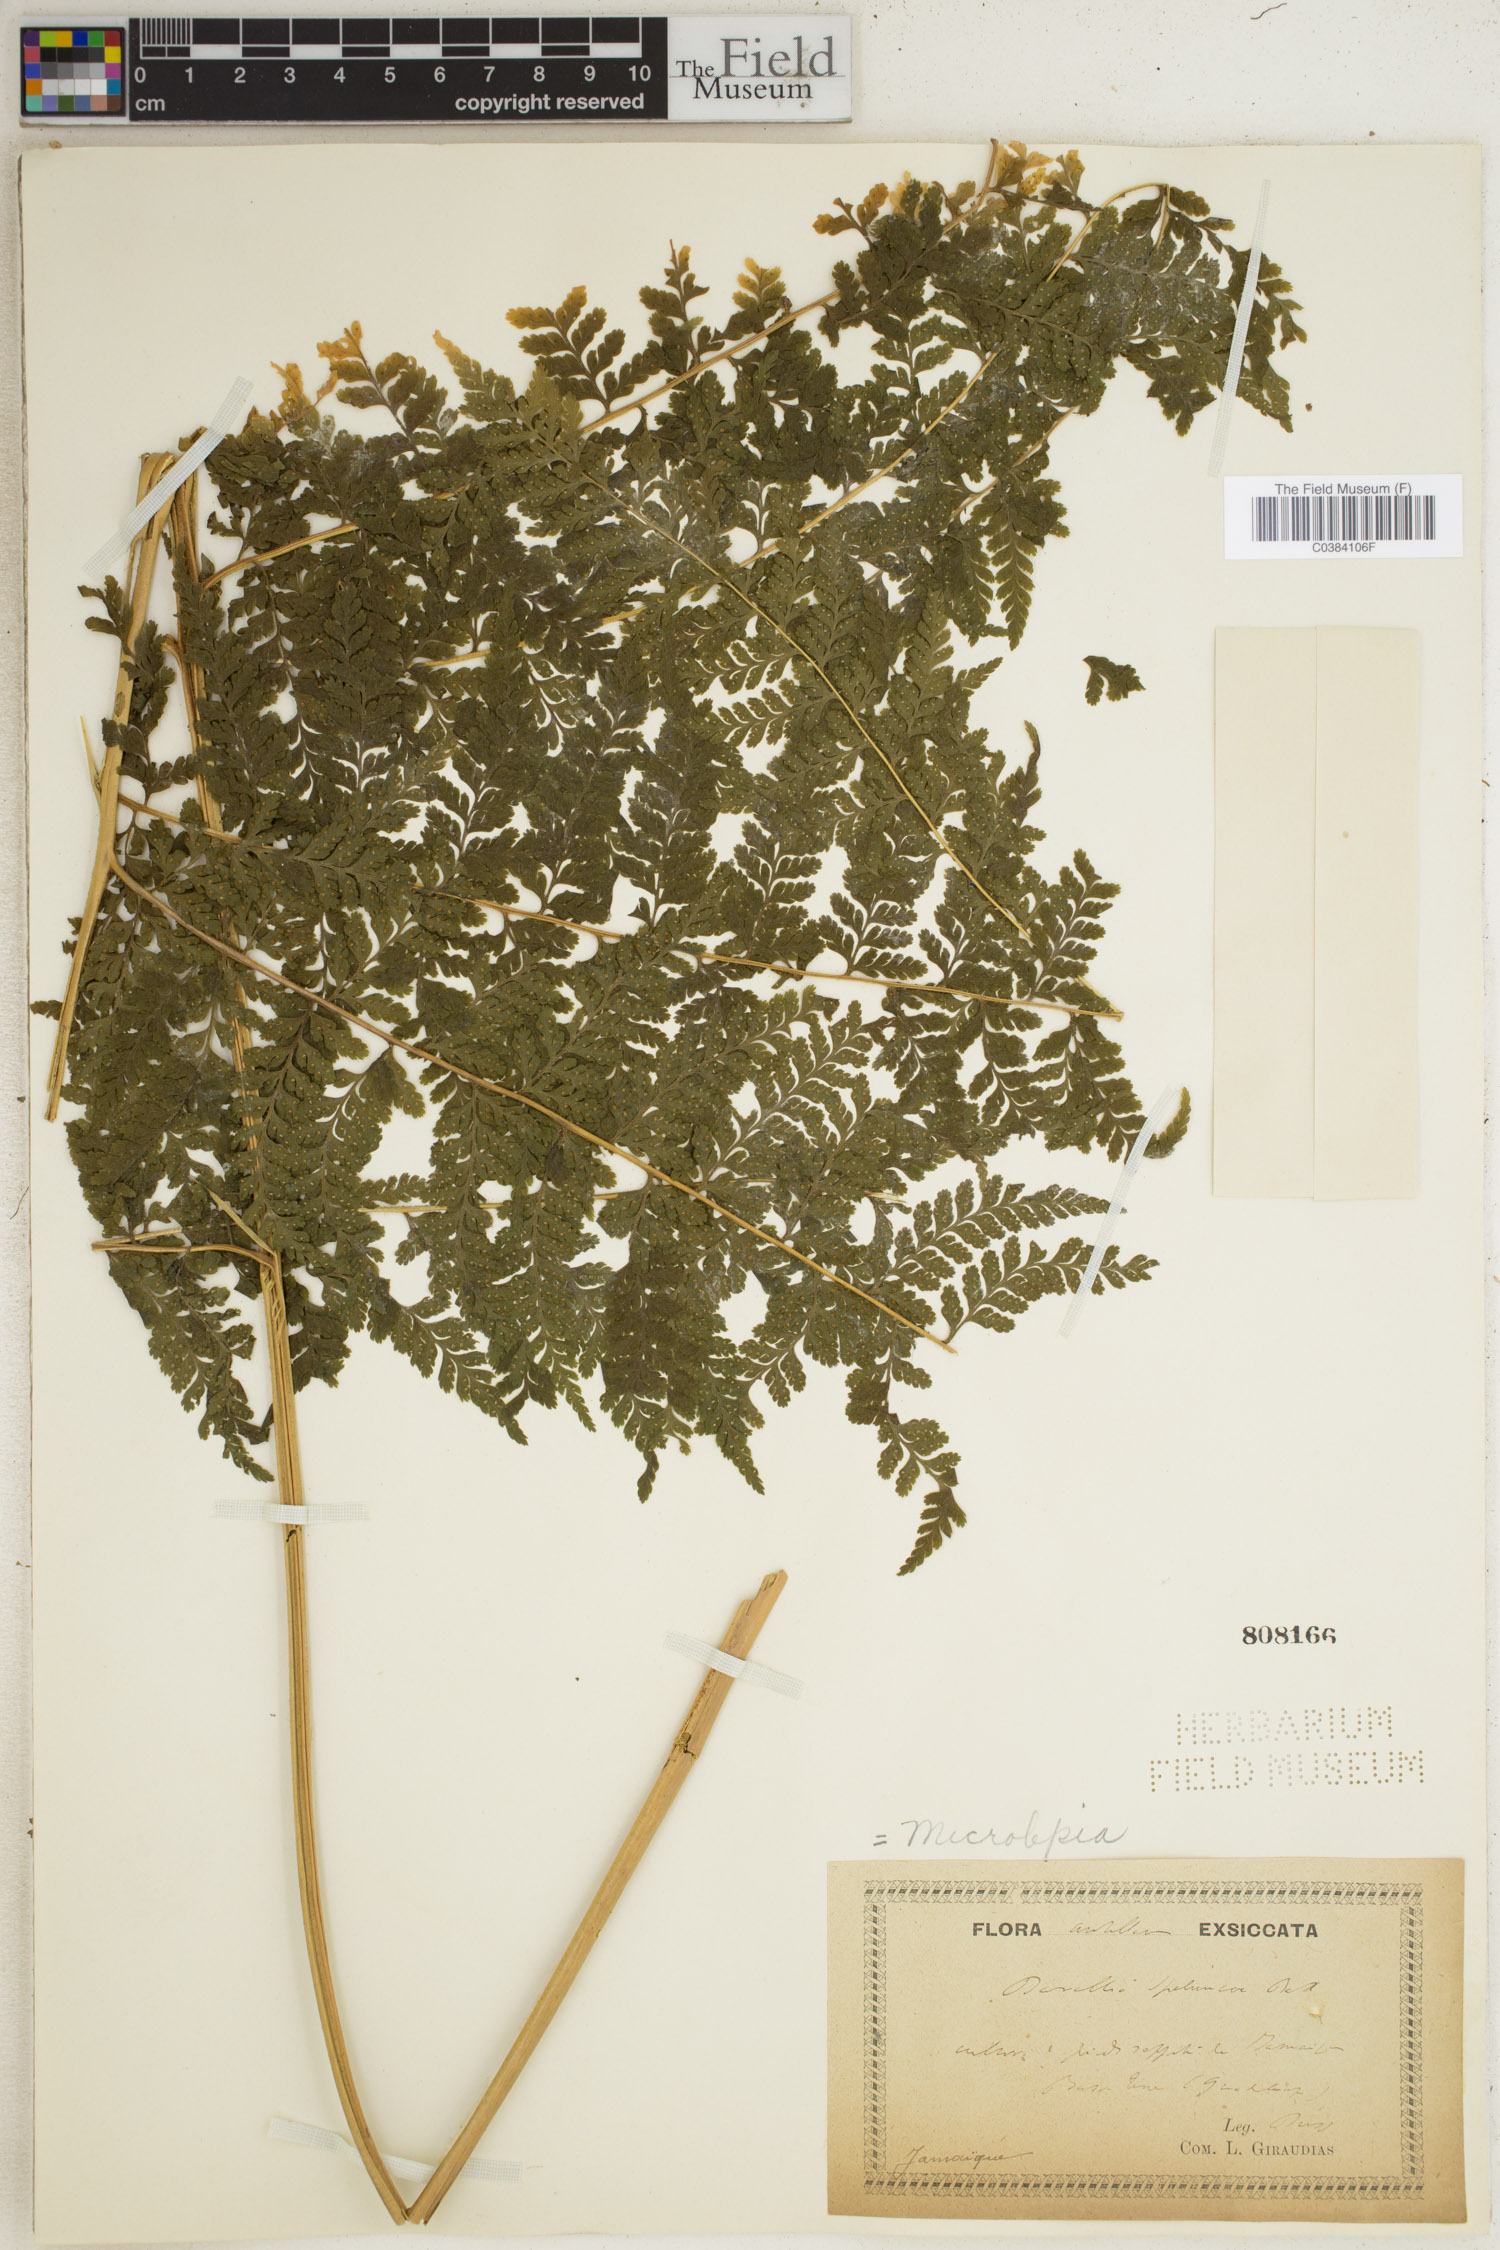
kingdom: Plantae
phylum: Tracheophyta
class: Polypodiopsida
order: Polypodiales
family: Dennstaedtiaceae
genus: Microlepia
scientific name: Microlepia speluncae
